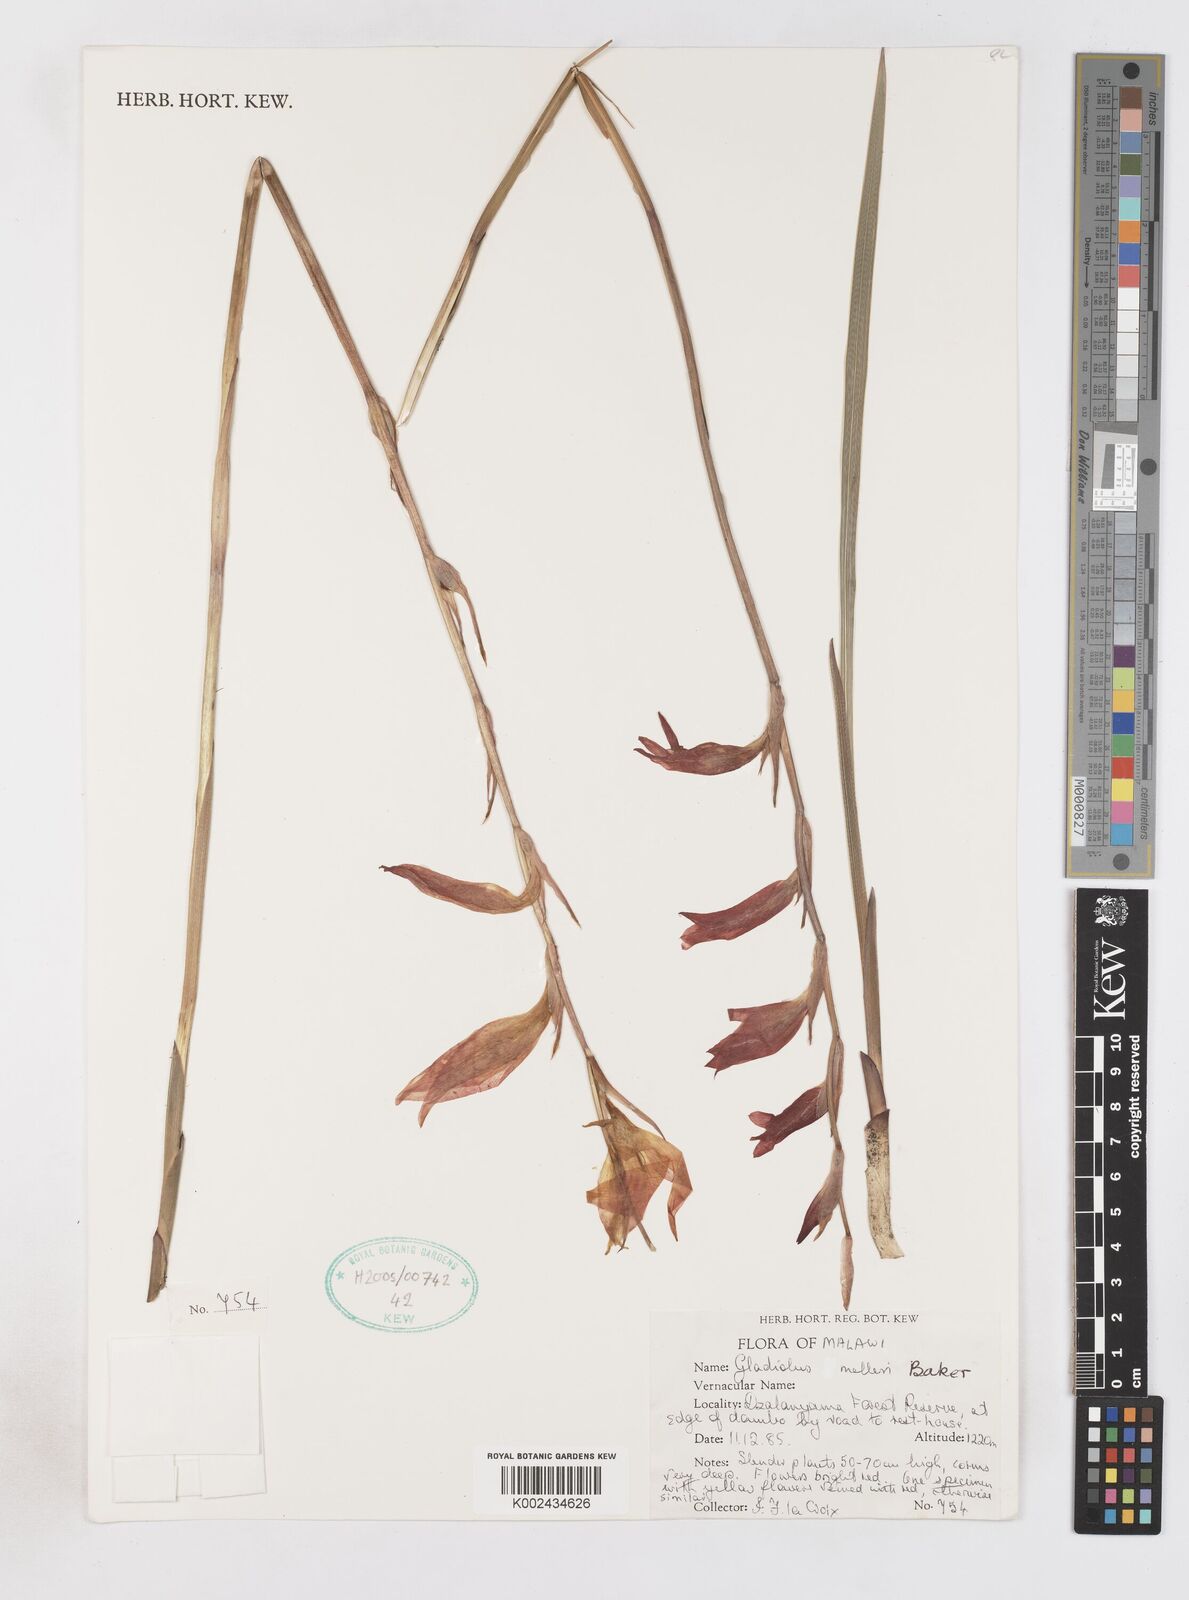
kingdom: Plantae
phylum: Tracheophyta
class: Liliopsida
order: Asparagales
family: Iridaceae
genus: Gladiolus
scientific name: Gladiolus melleri
